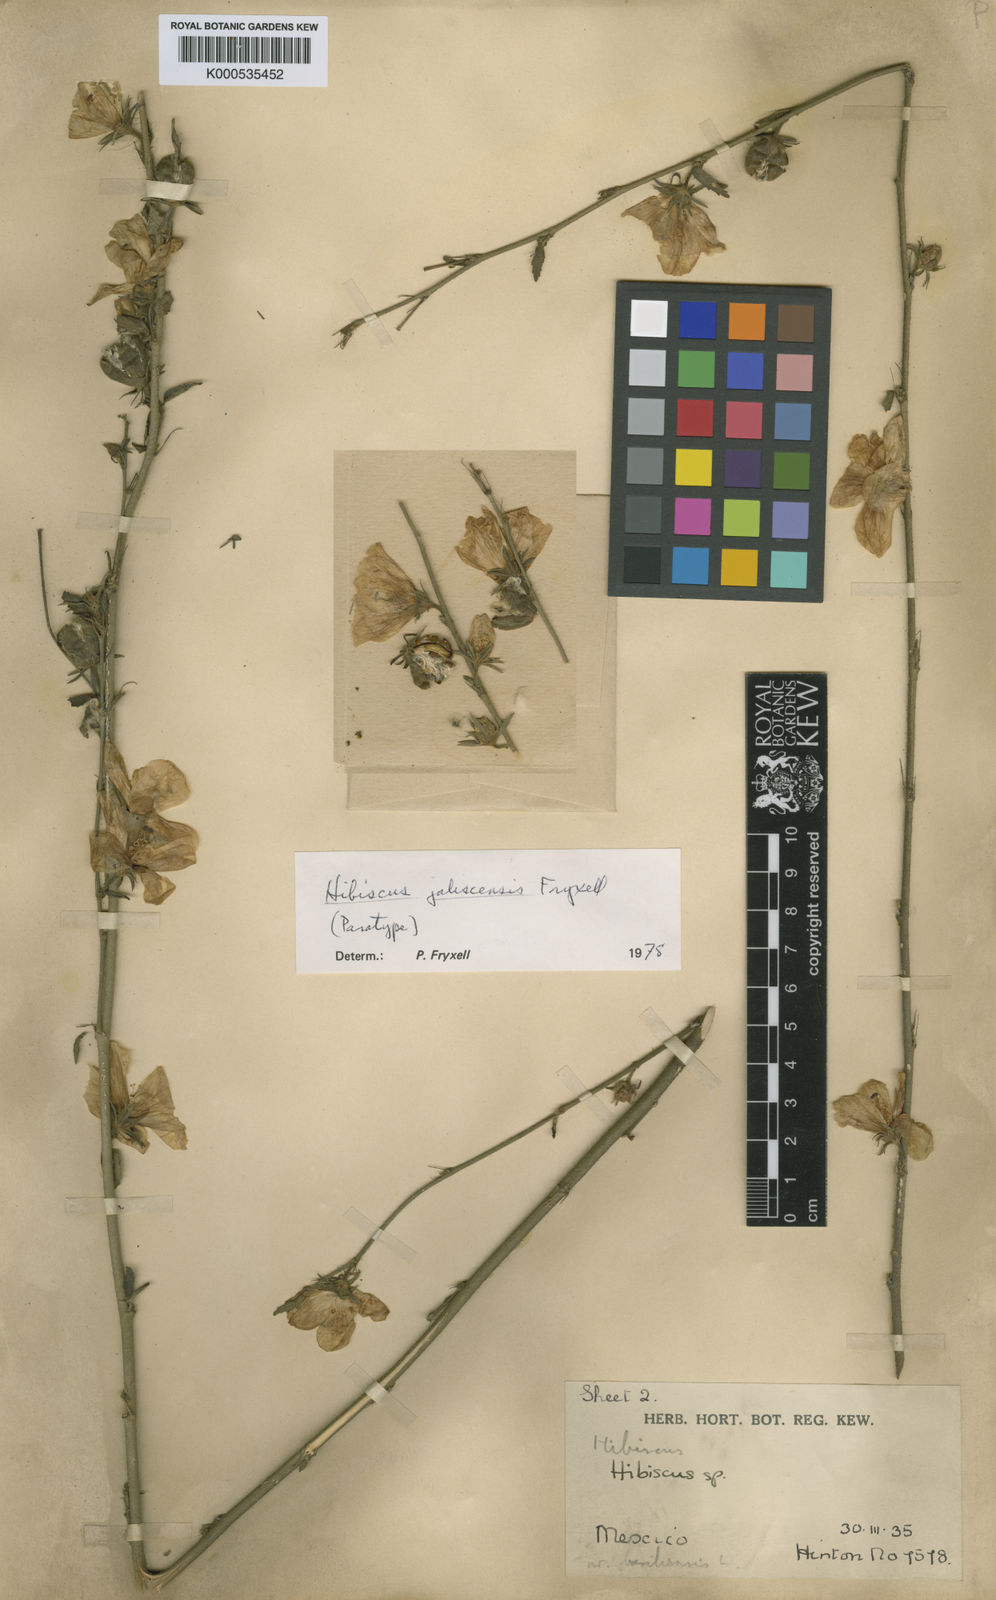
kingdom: Plantae
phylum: Tracheophyta
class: Magnoliopsida
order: Malvales
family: Malvaceae
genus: Hibiscus
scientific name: Hibiscus jaliscensis
